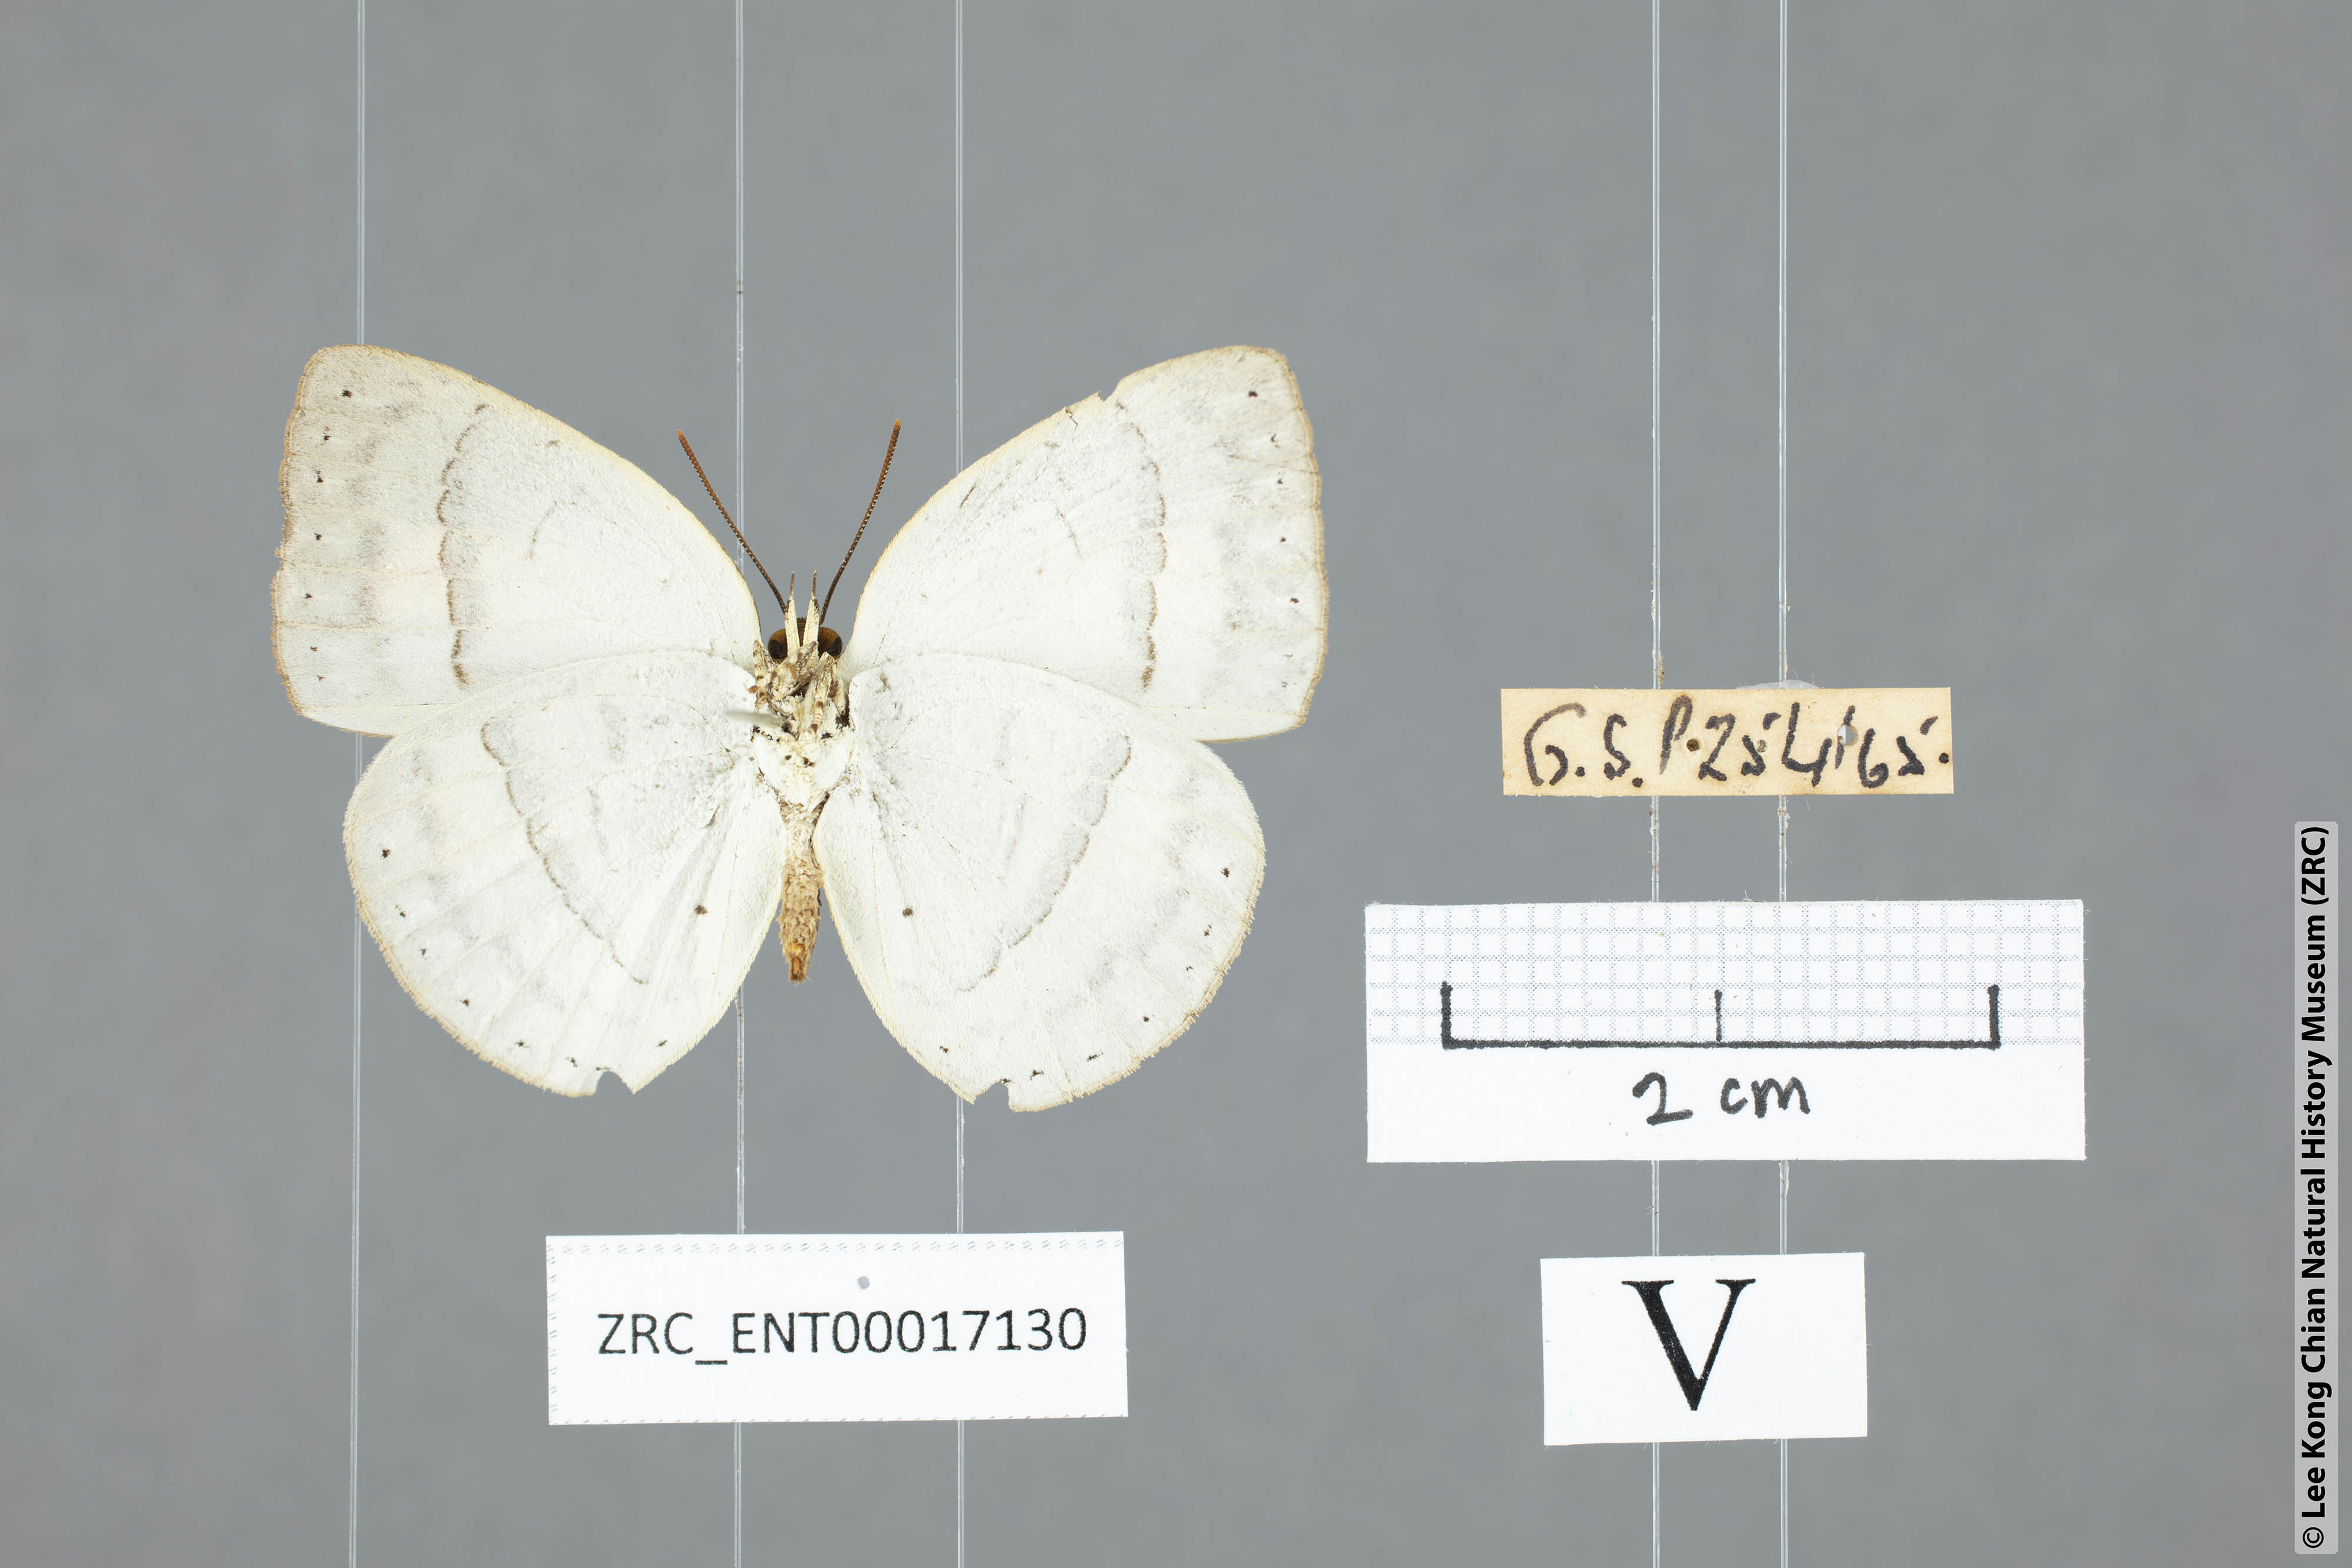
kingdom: Animalia
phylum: Arthropoda
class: Insecta
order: Lepidoptera
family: Lycaenidae
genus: Curetis
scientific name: Curetis freda
